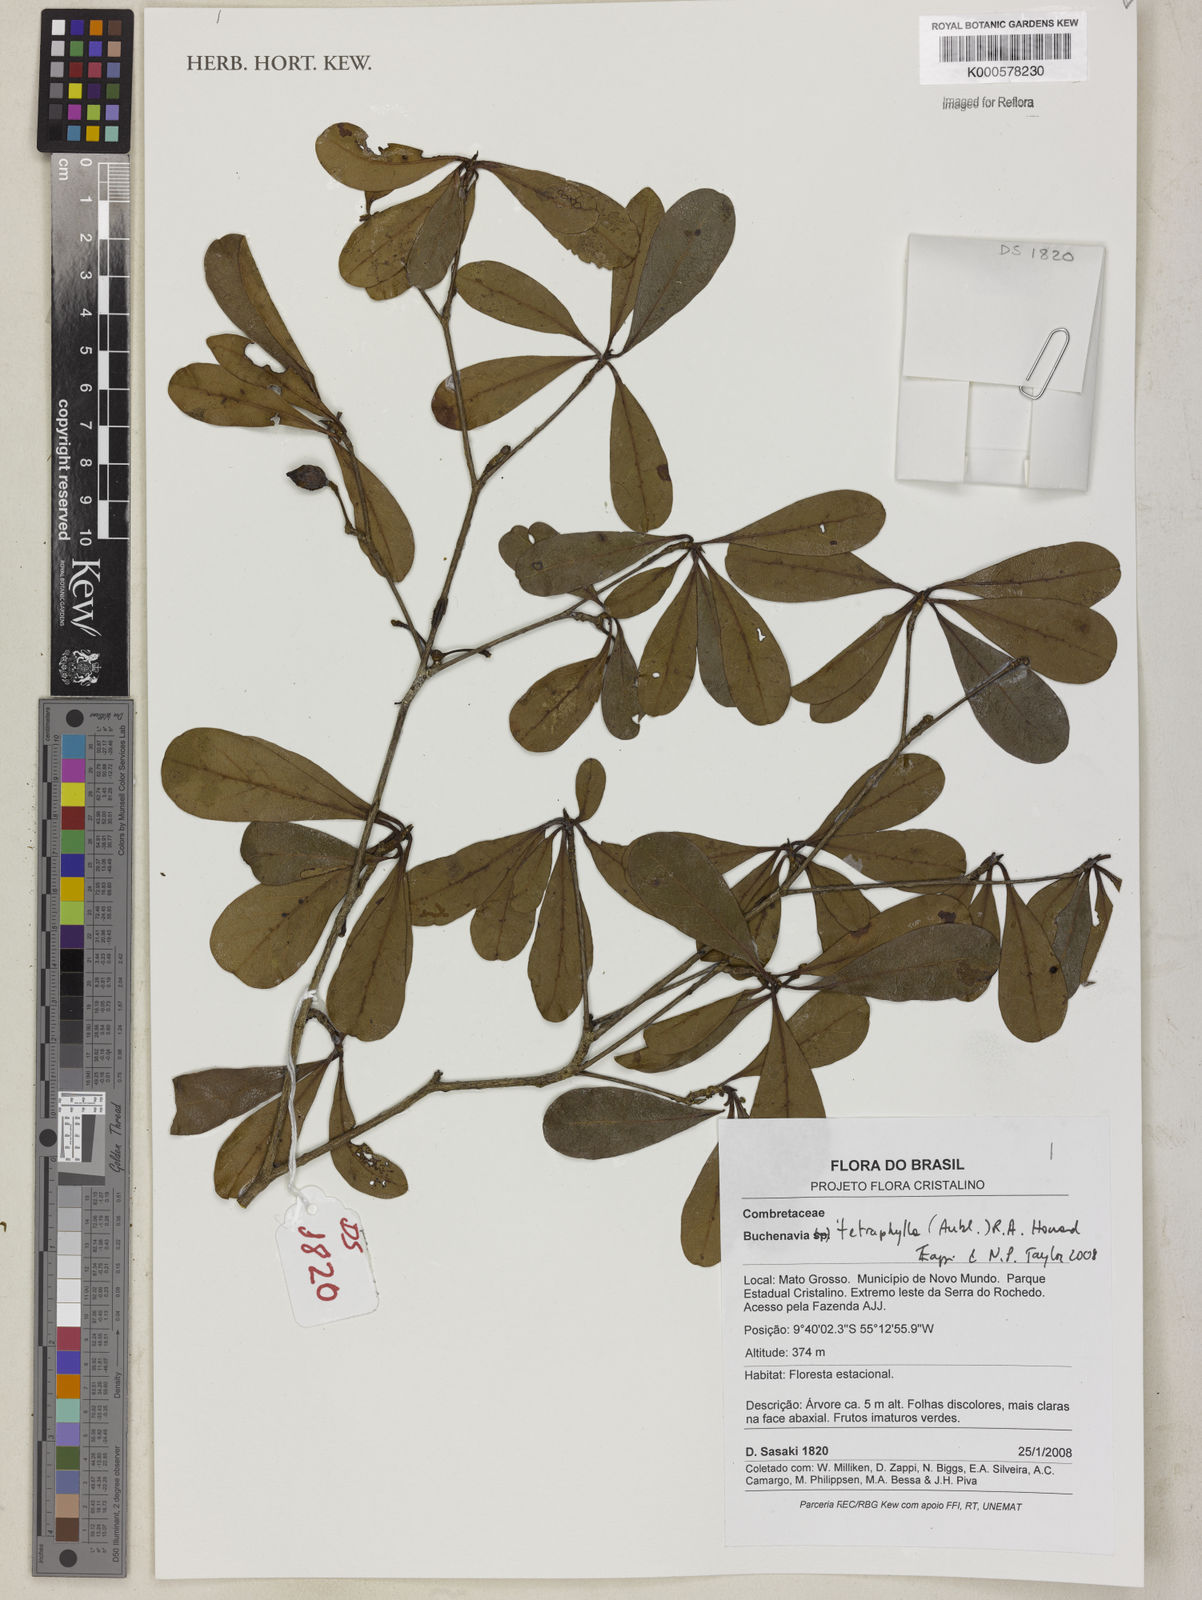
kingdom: Plantae
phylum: Tracheophyta
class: Magnoliopsida
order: Myrtales
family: Combretaceae
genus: Terminalia
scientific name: Terminalia tetraphylla
